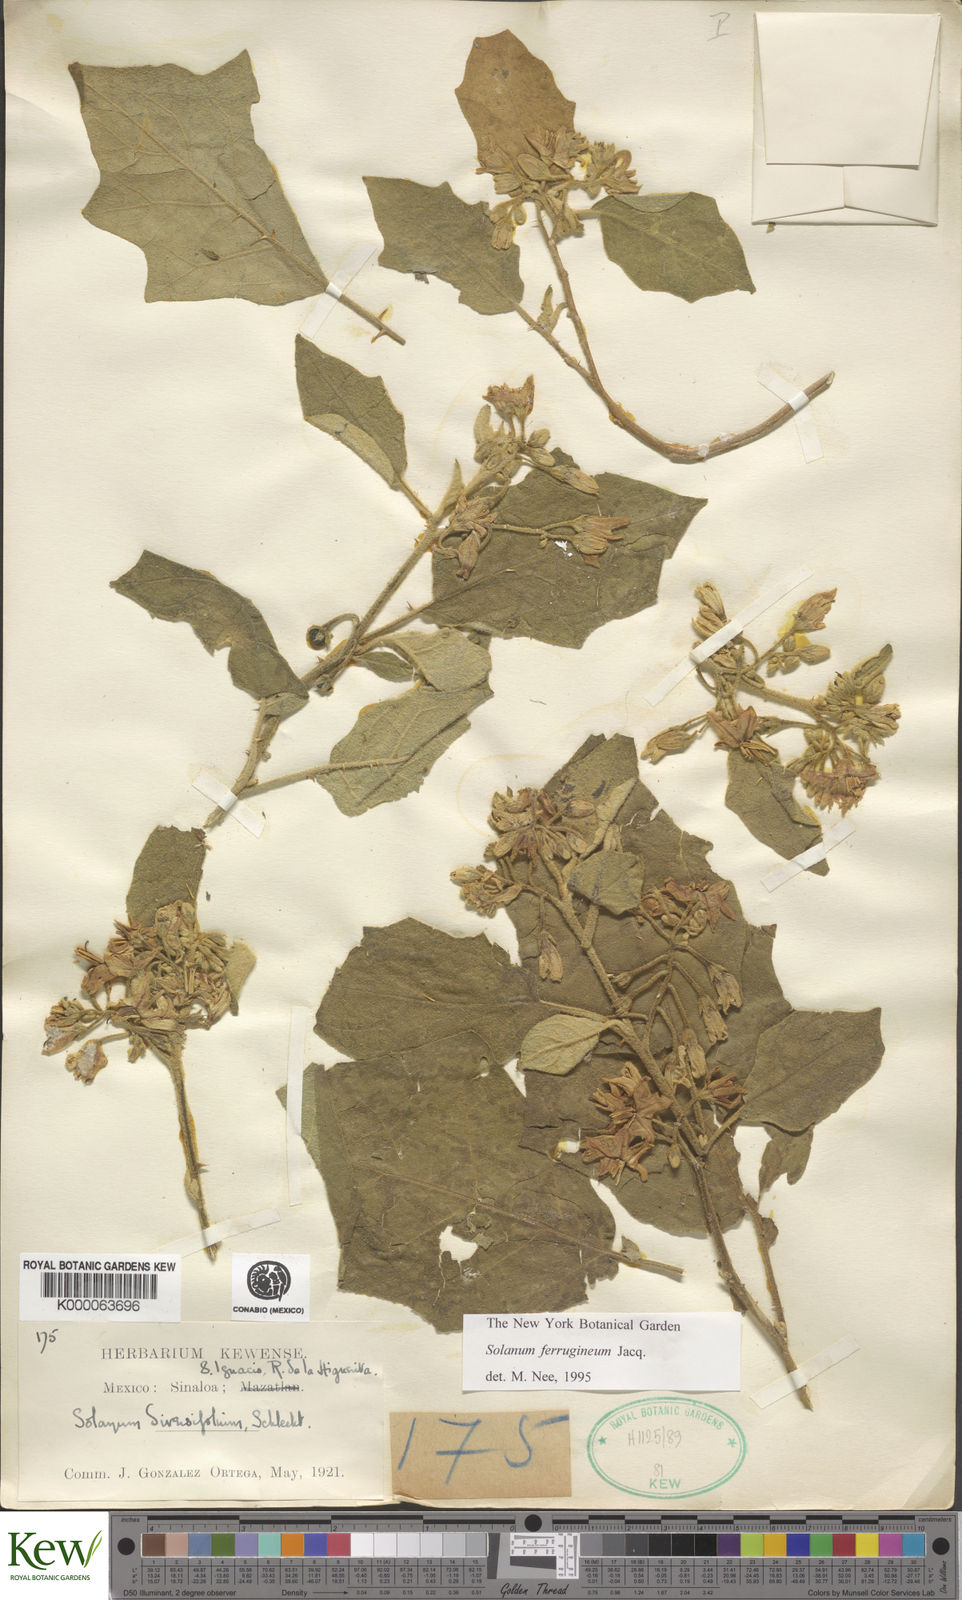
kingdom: Plantae
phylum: Tracheophyta
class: Magnoliopsida
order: Solanales
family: Solanaceae
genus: Solanum
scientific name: Solanum
